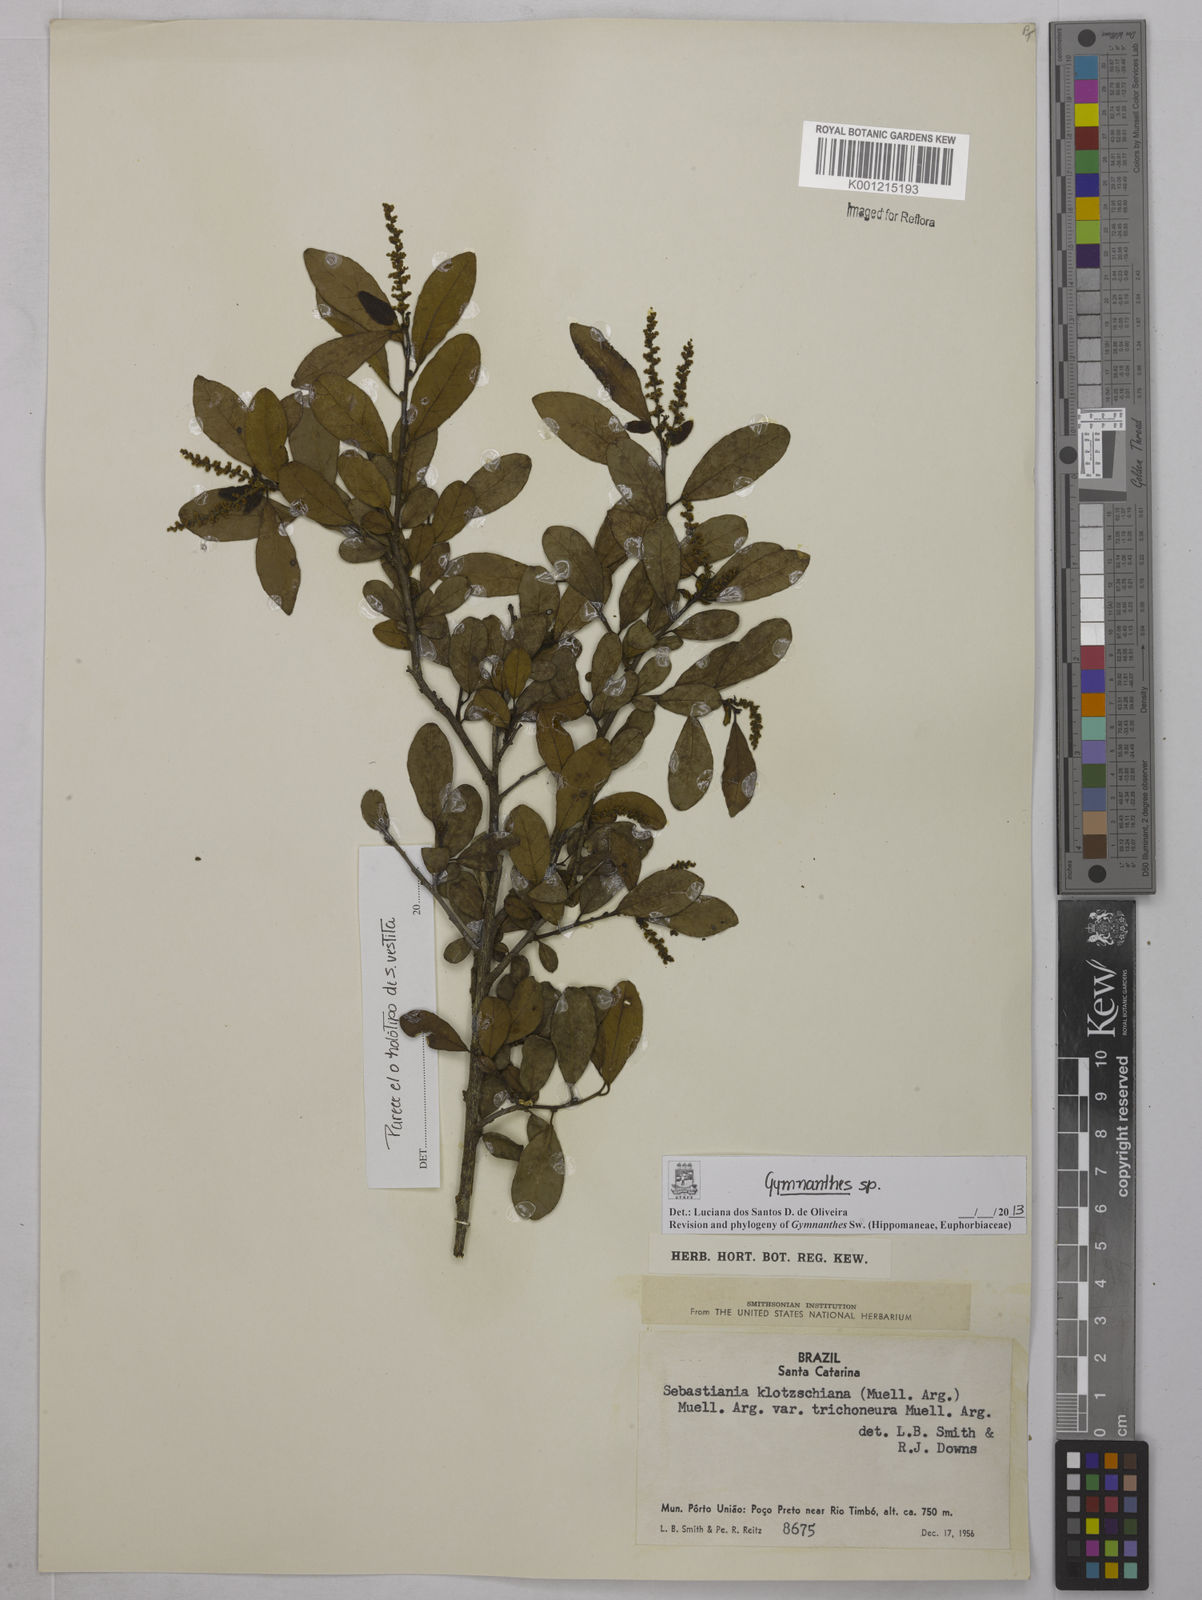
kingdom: Plantae
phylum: Tracheophyta
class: Magnoliopsida
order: Malpighiales
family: Euphorbiaceae
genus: Gymnanthes
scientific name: Gymnanthes
